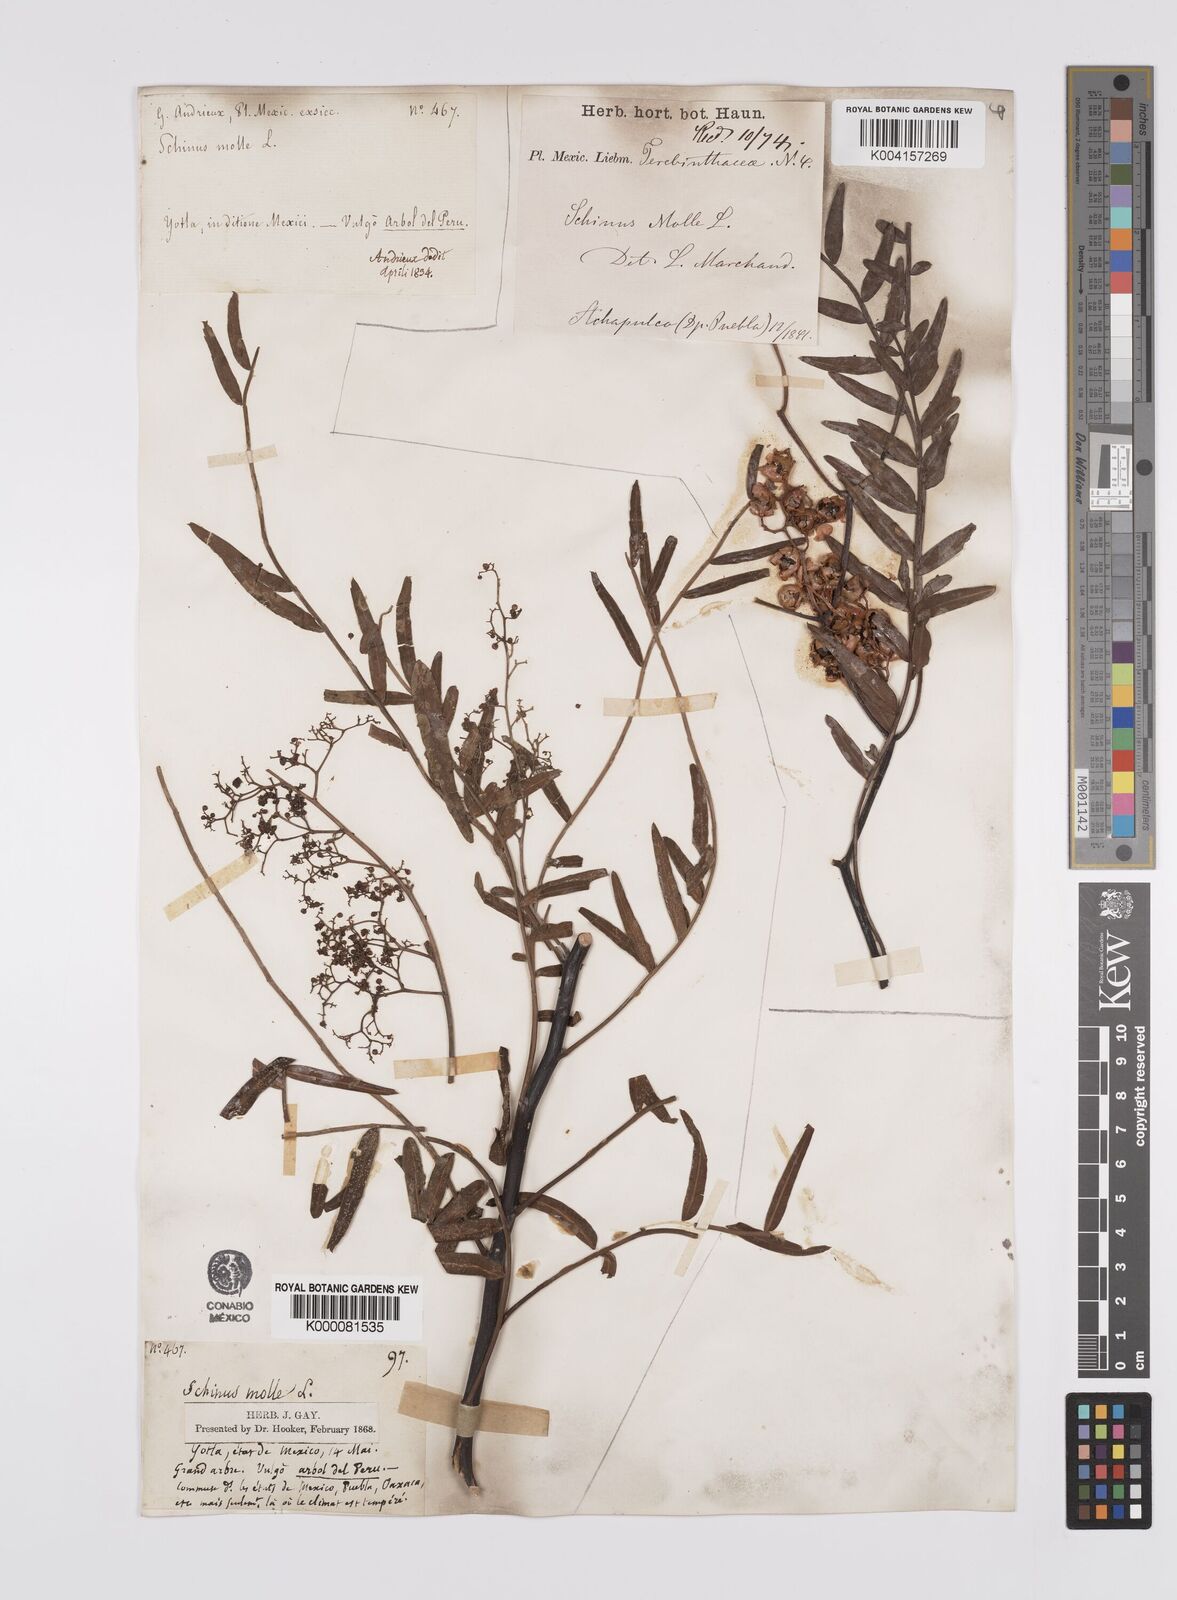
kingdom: Plantae
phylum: Tracheophyta
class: Magnoliopsida
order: Sapindales
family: Anacardiaceae
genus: Schinus
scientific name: Schinus molle
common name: Peruvian peppertree
